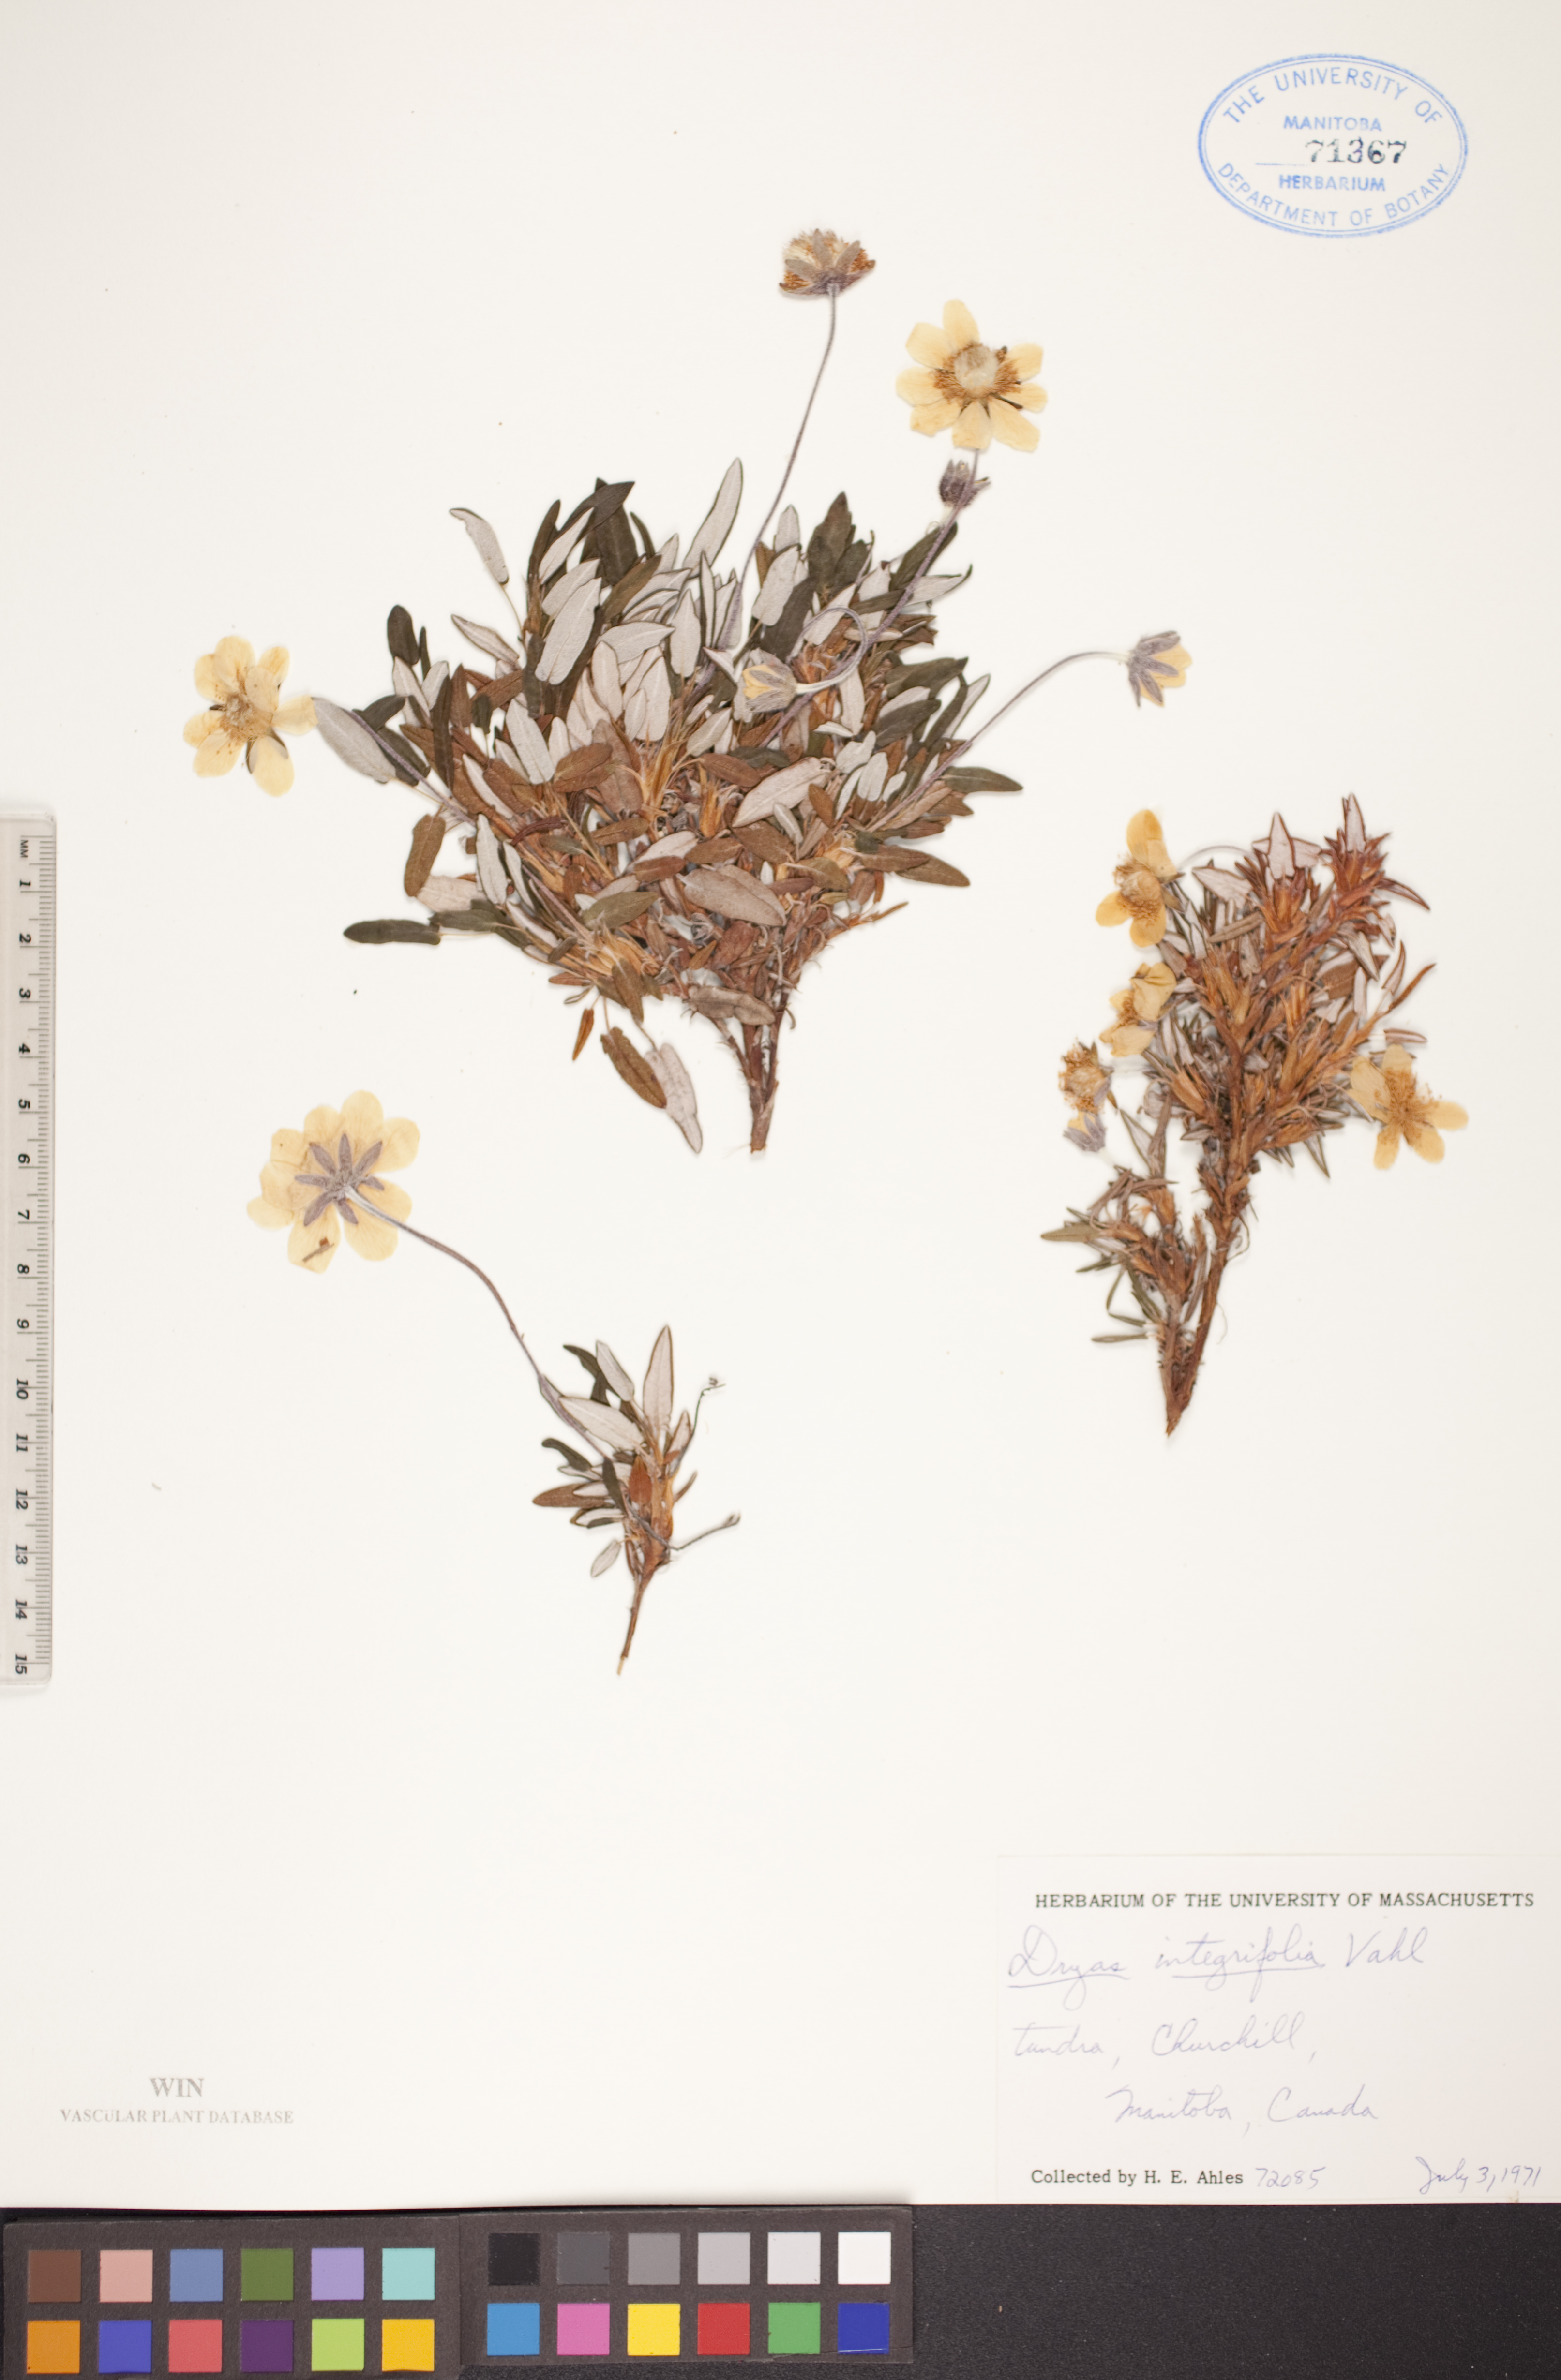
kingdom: Plantae
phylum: Tracheophyta
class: Magnoliopsida
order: Rosales
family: Rosaceae
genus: Dryas
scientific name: Dryas integrifolia
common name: Entire-leaved mountain avens
